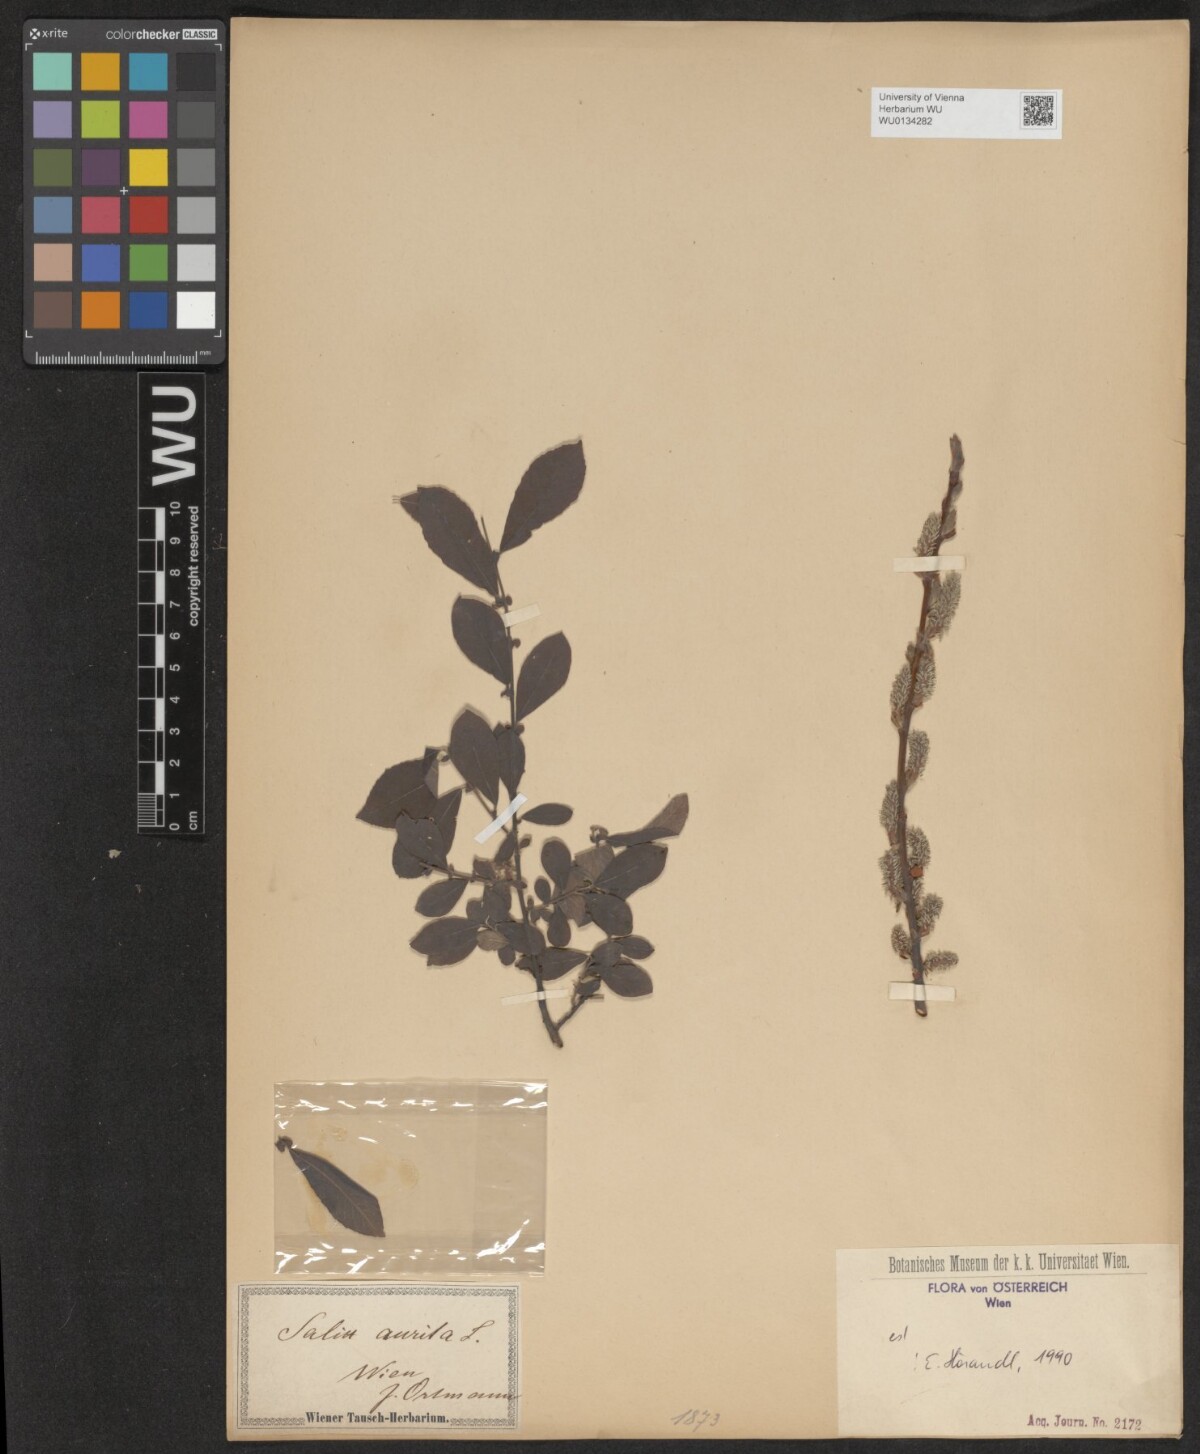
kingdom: Plantae
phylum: Tracheophyta
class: Magnoliopsida
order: Malpighiales
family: Salicaceae
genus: Salix
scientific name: Salix aurita
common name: Eared willow
